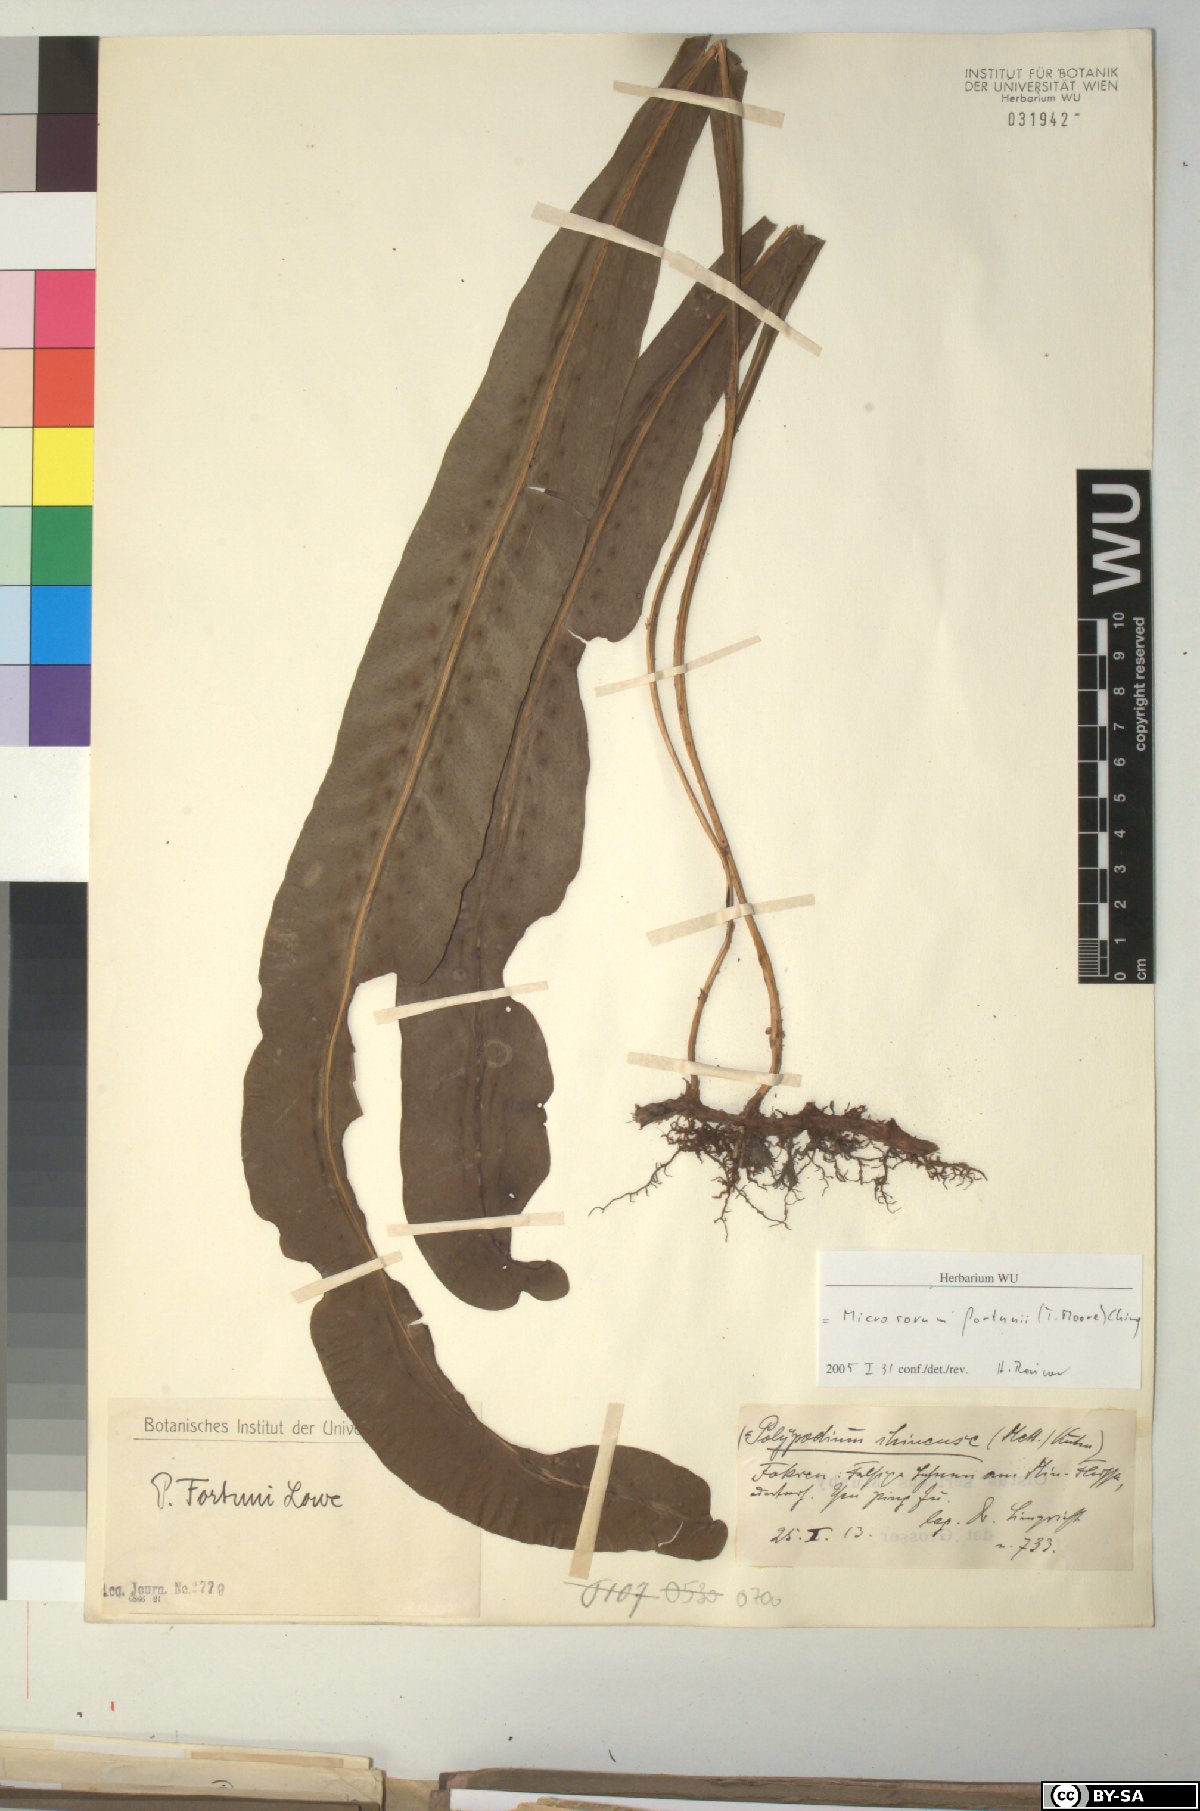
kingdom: Plantae
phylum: Tracheophyta
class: Polypodiopsida
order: Polypodiales
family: Polypodiaceae
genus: Lepisorus
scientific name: Lepisorus fortuni
